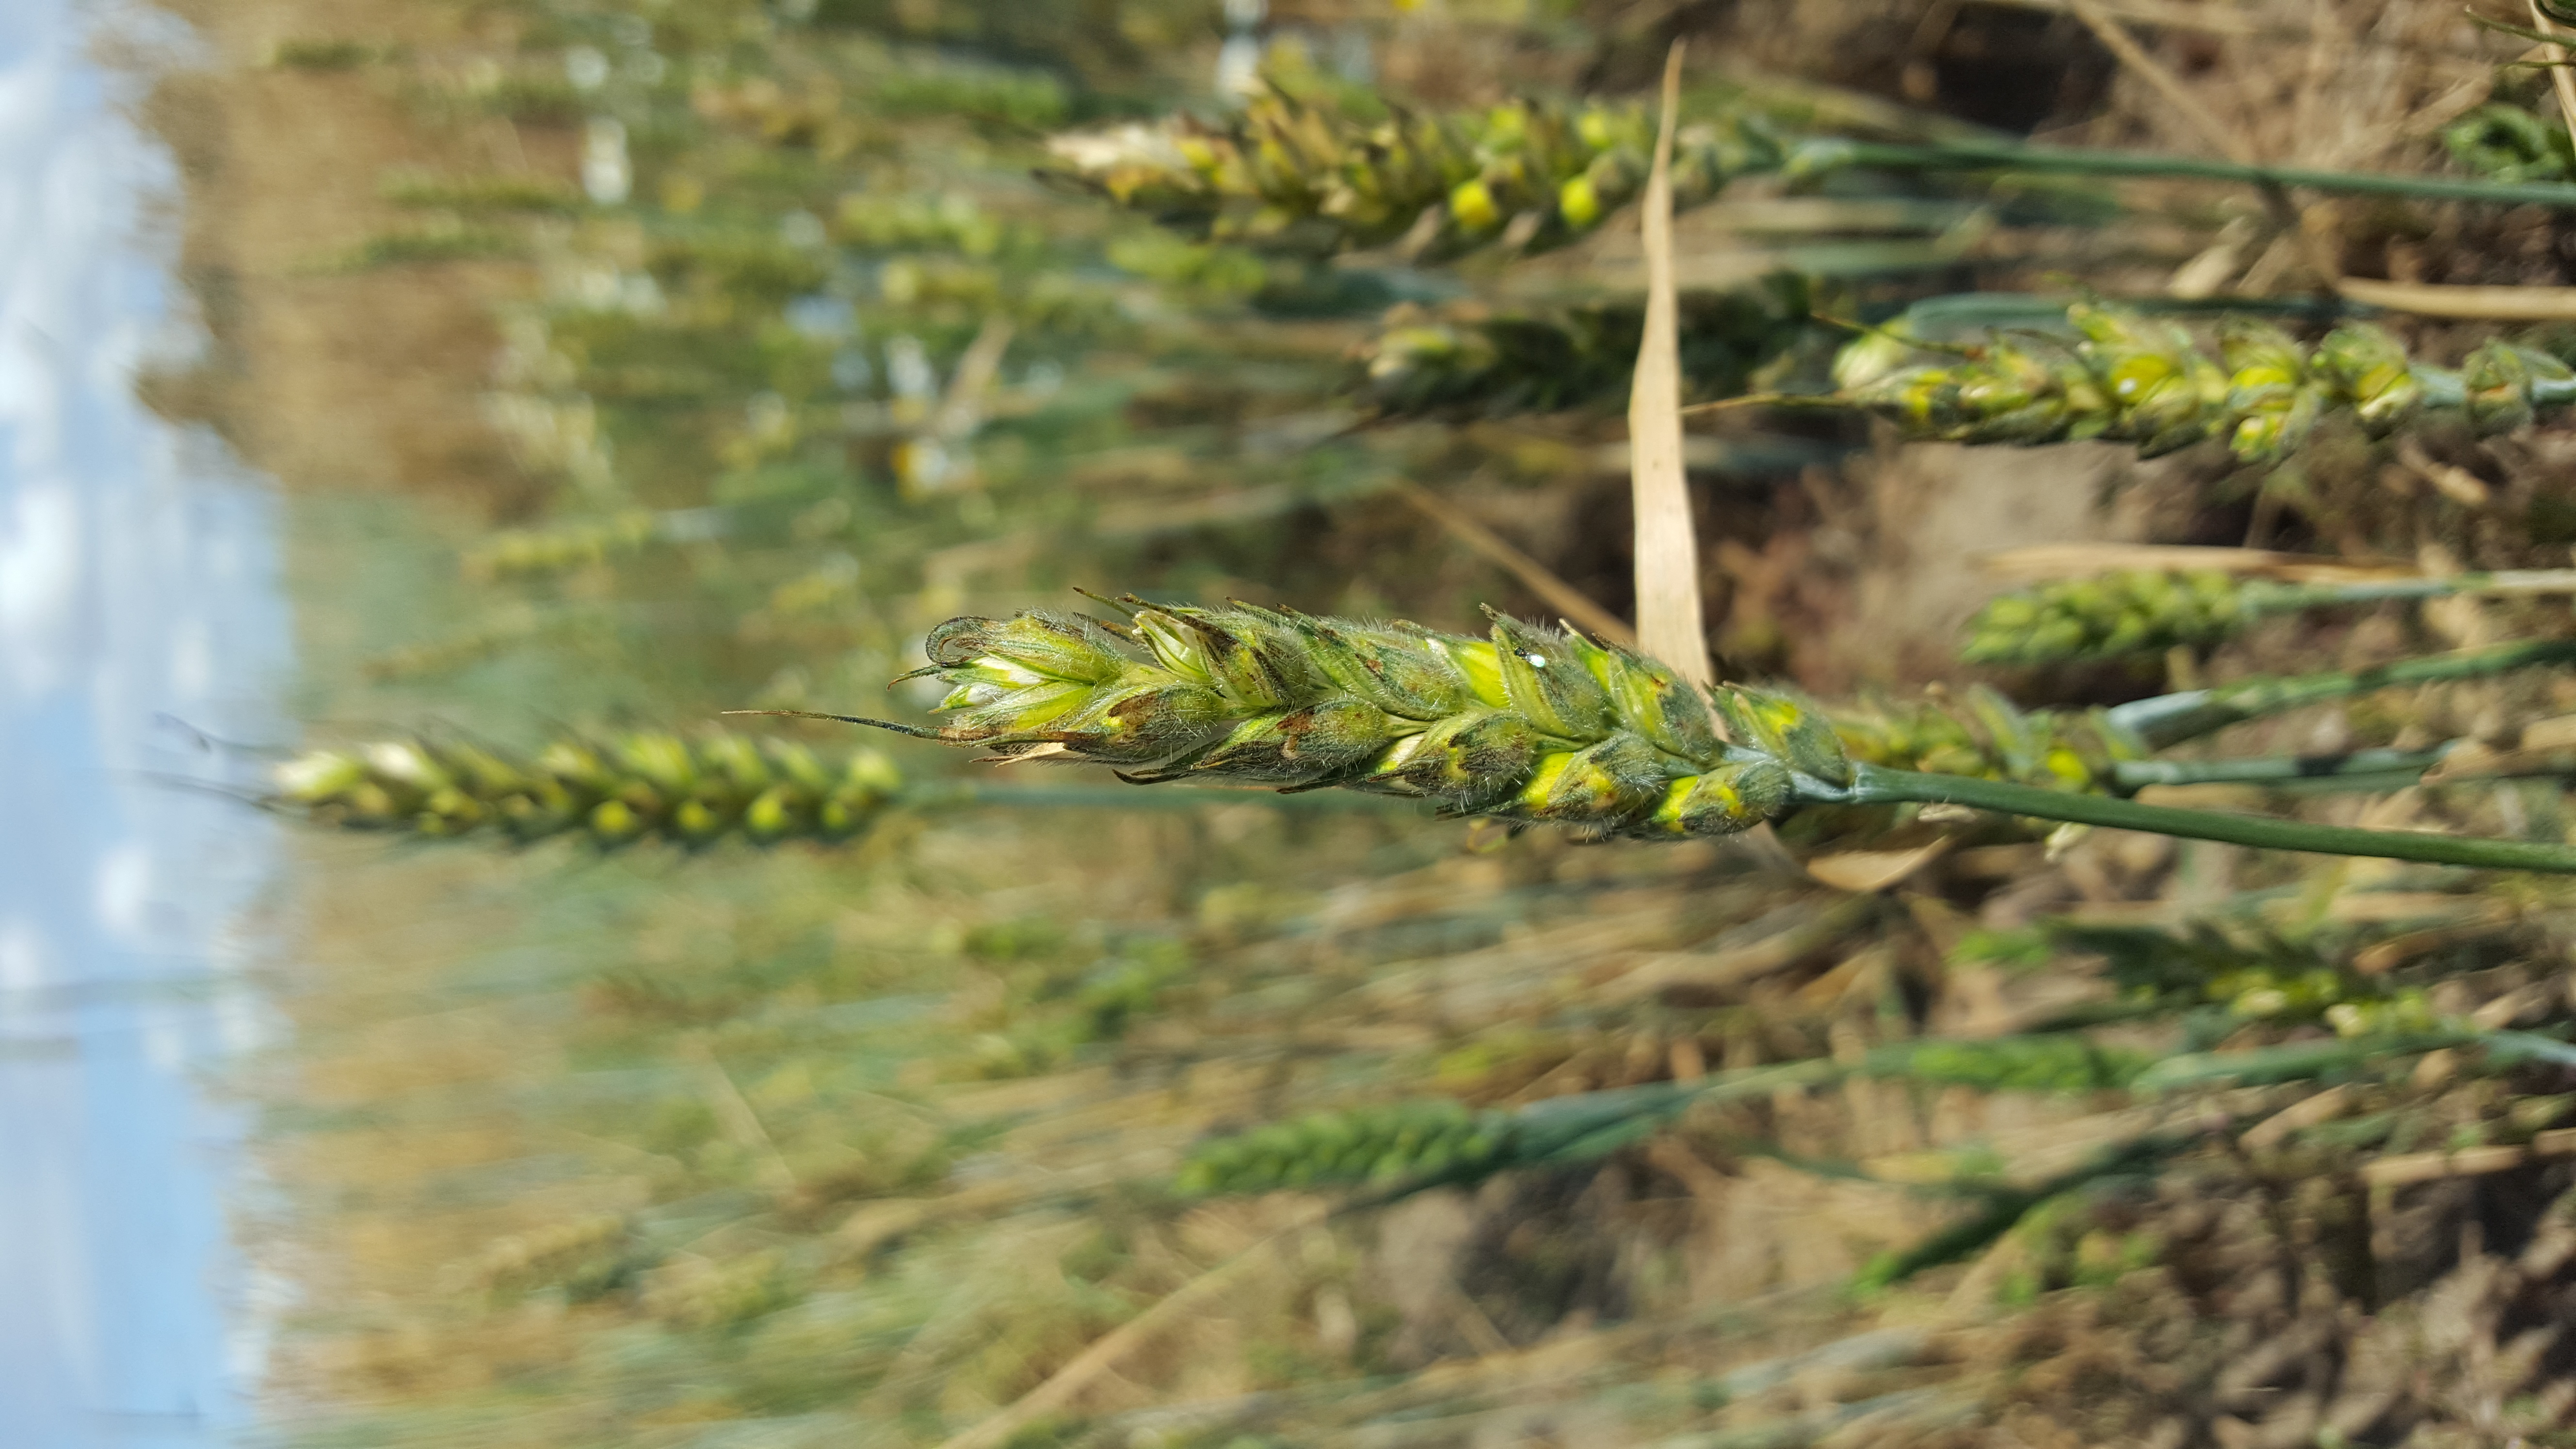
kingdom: Plantae
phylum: Tracheophyta
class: Liliopsida
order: Poales
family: Poaceae
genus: Triticum
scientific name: Triticum aestivum
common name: Common wheat
